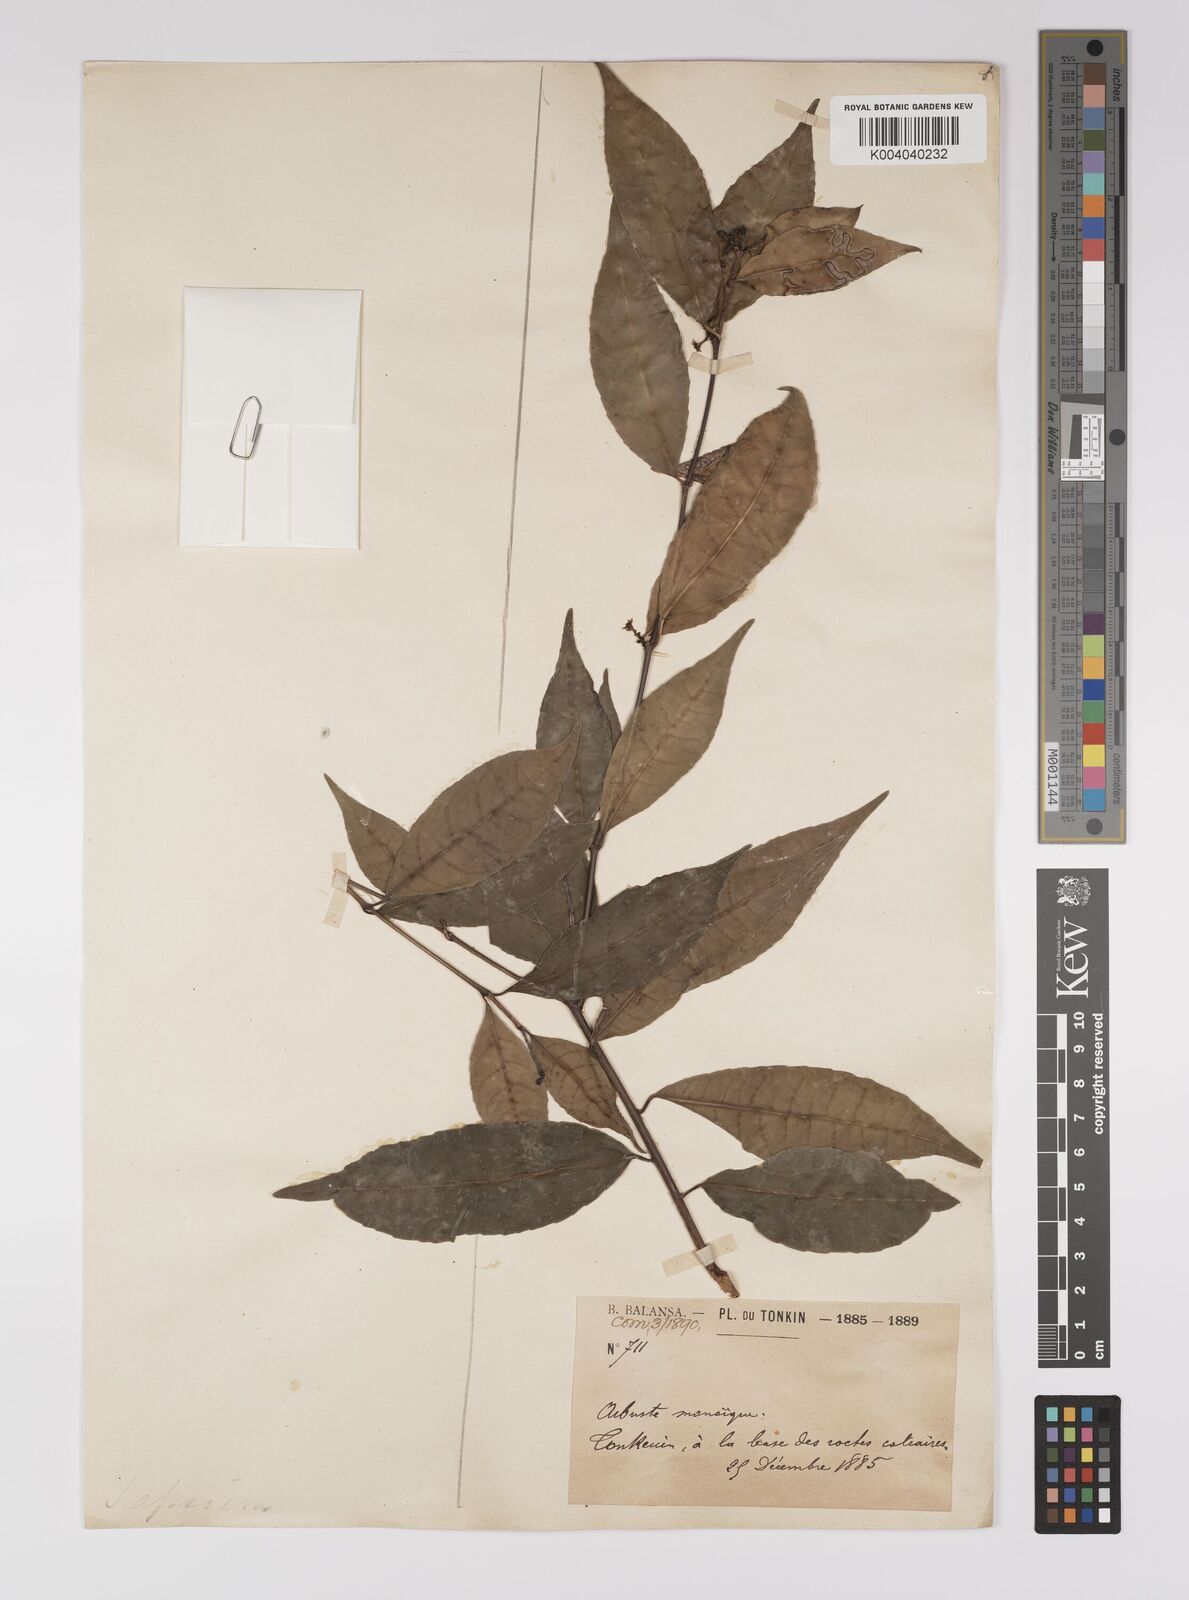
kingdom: Plantae
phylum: Tracheophyta
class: Magnoliopsida
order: Malpighiales
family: Euphorbiaceae
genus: Excoecaria
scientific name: Excoecaria cochinchinensis
